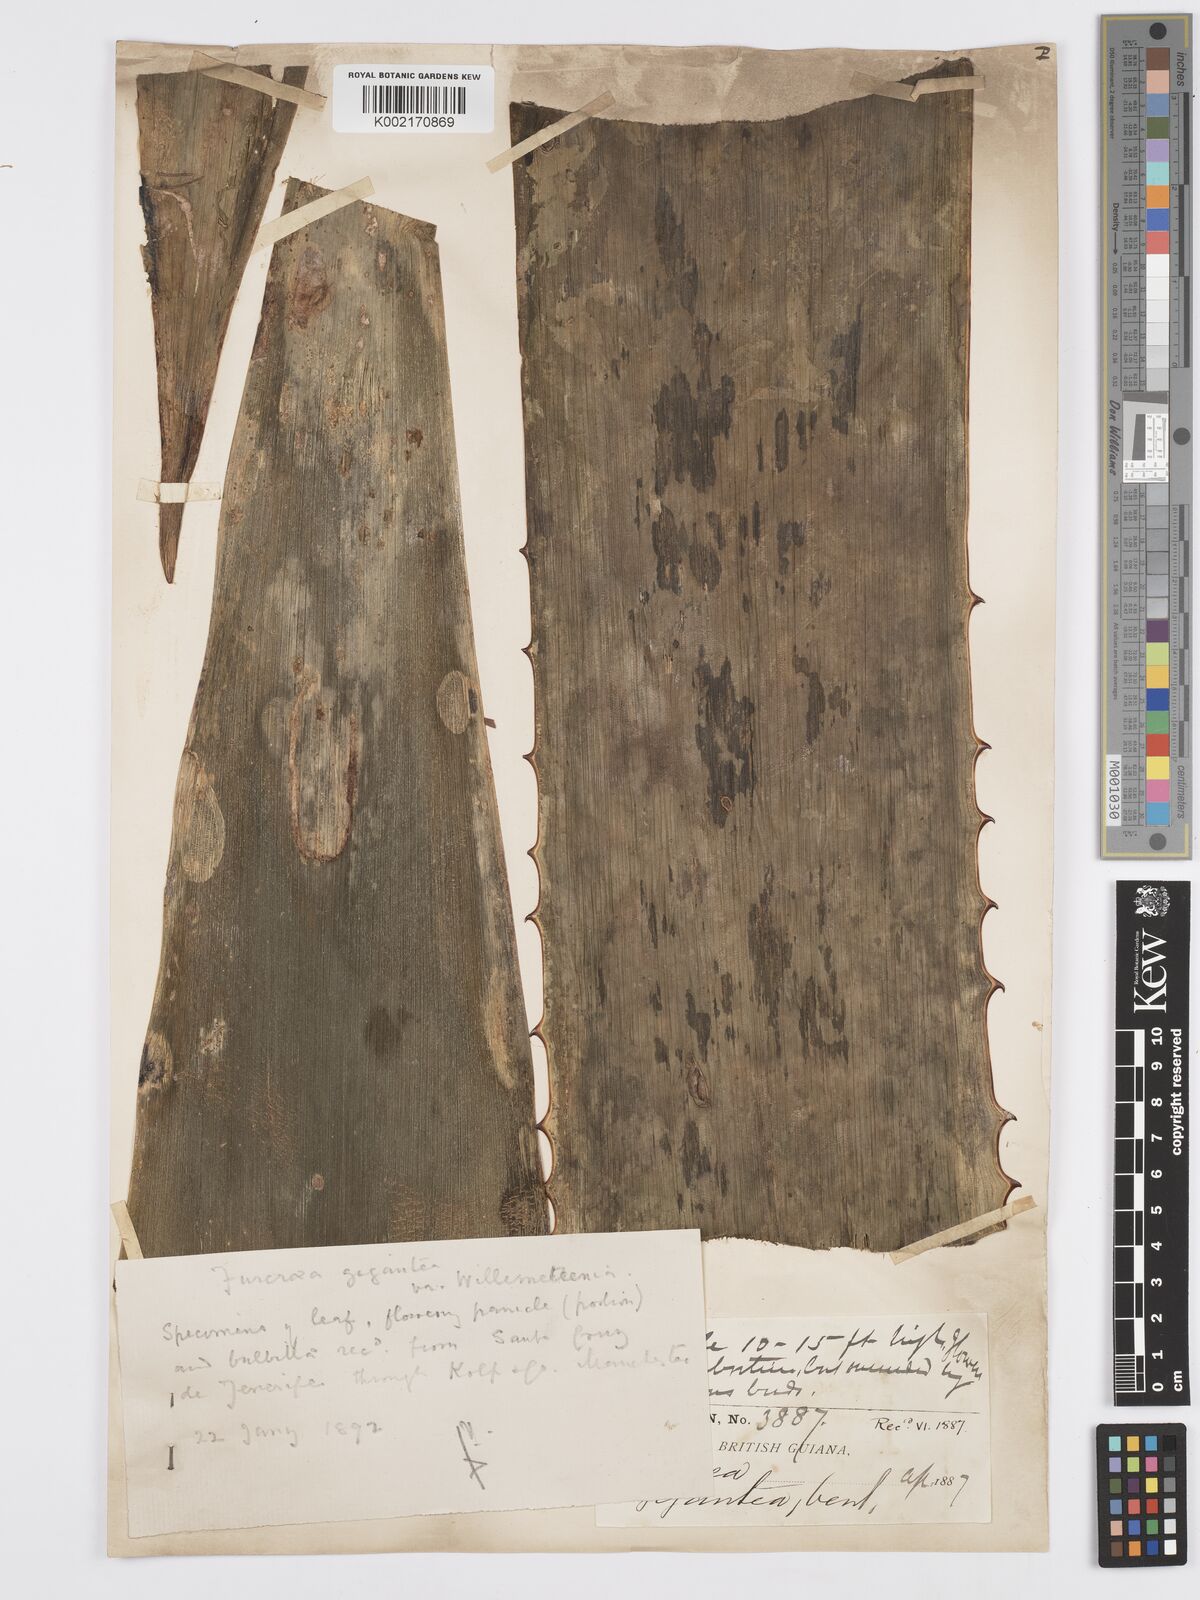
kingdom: Plantae
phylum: Tracheophyta
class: Liliopsida
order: Asparagales
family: Asparagaceae
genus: Furcraea
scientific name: Furcraea foetida
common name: Mauritius hemp
